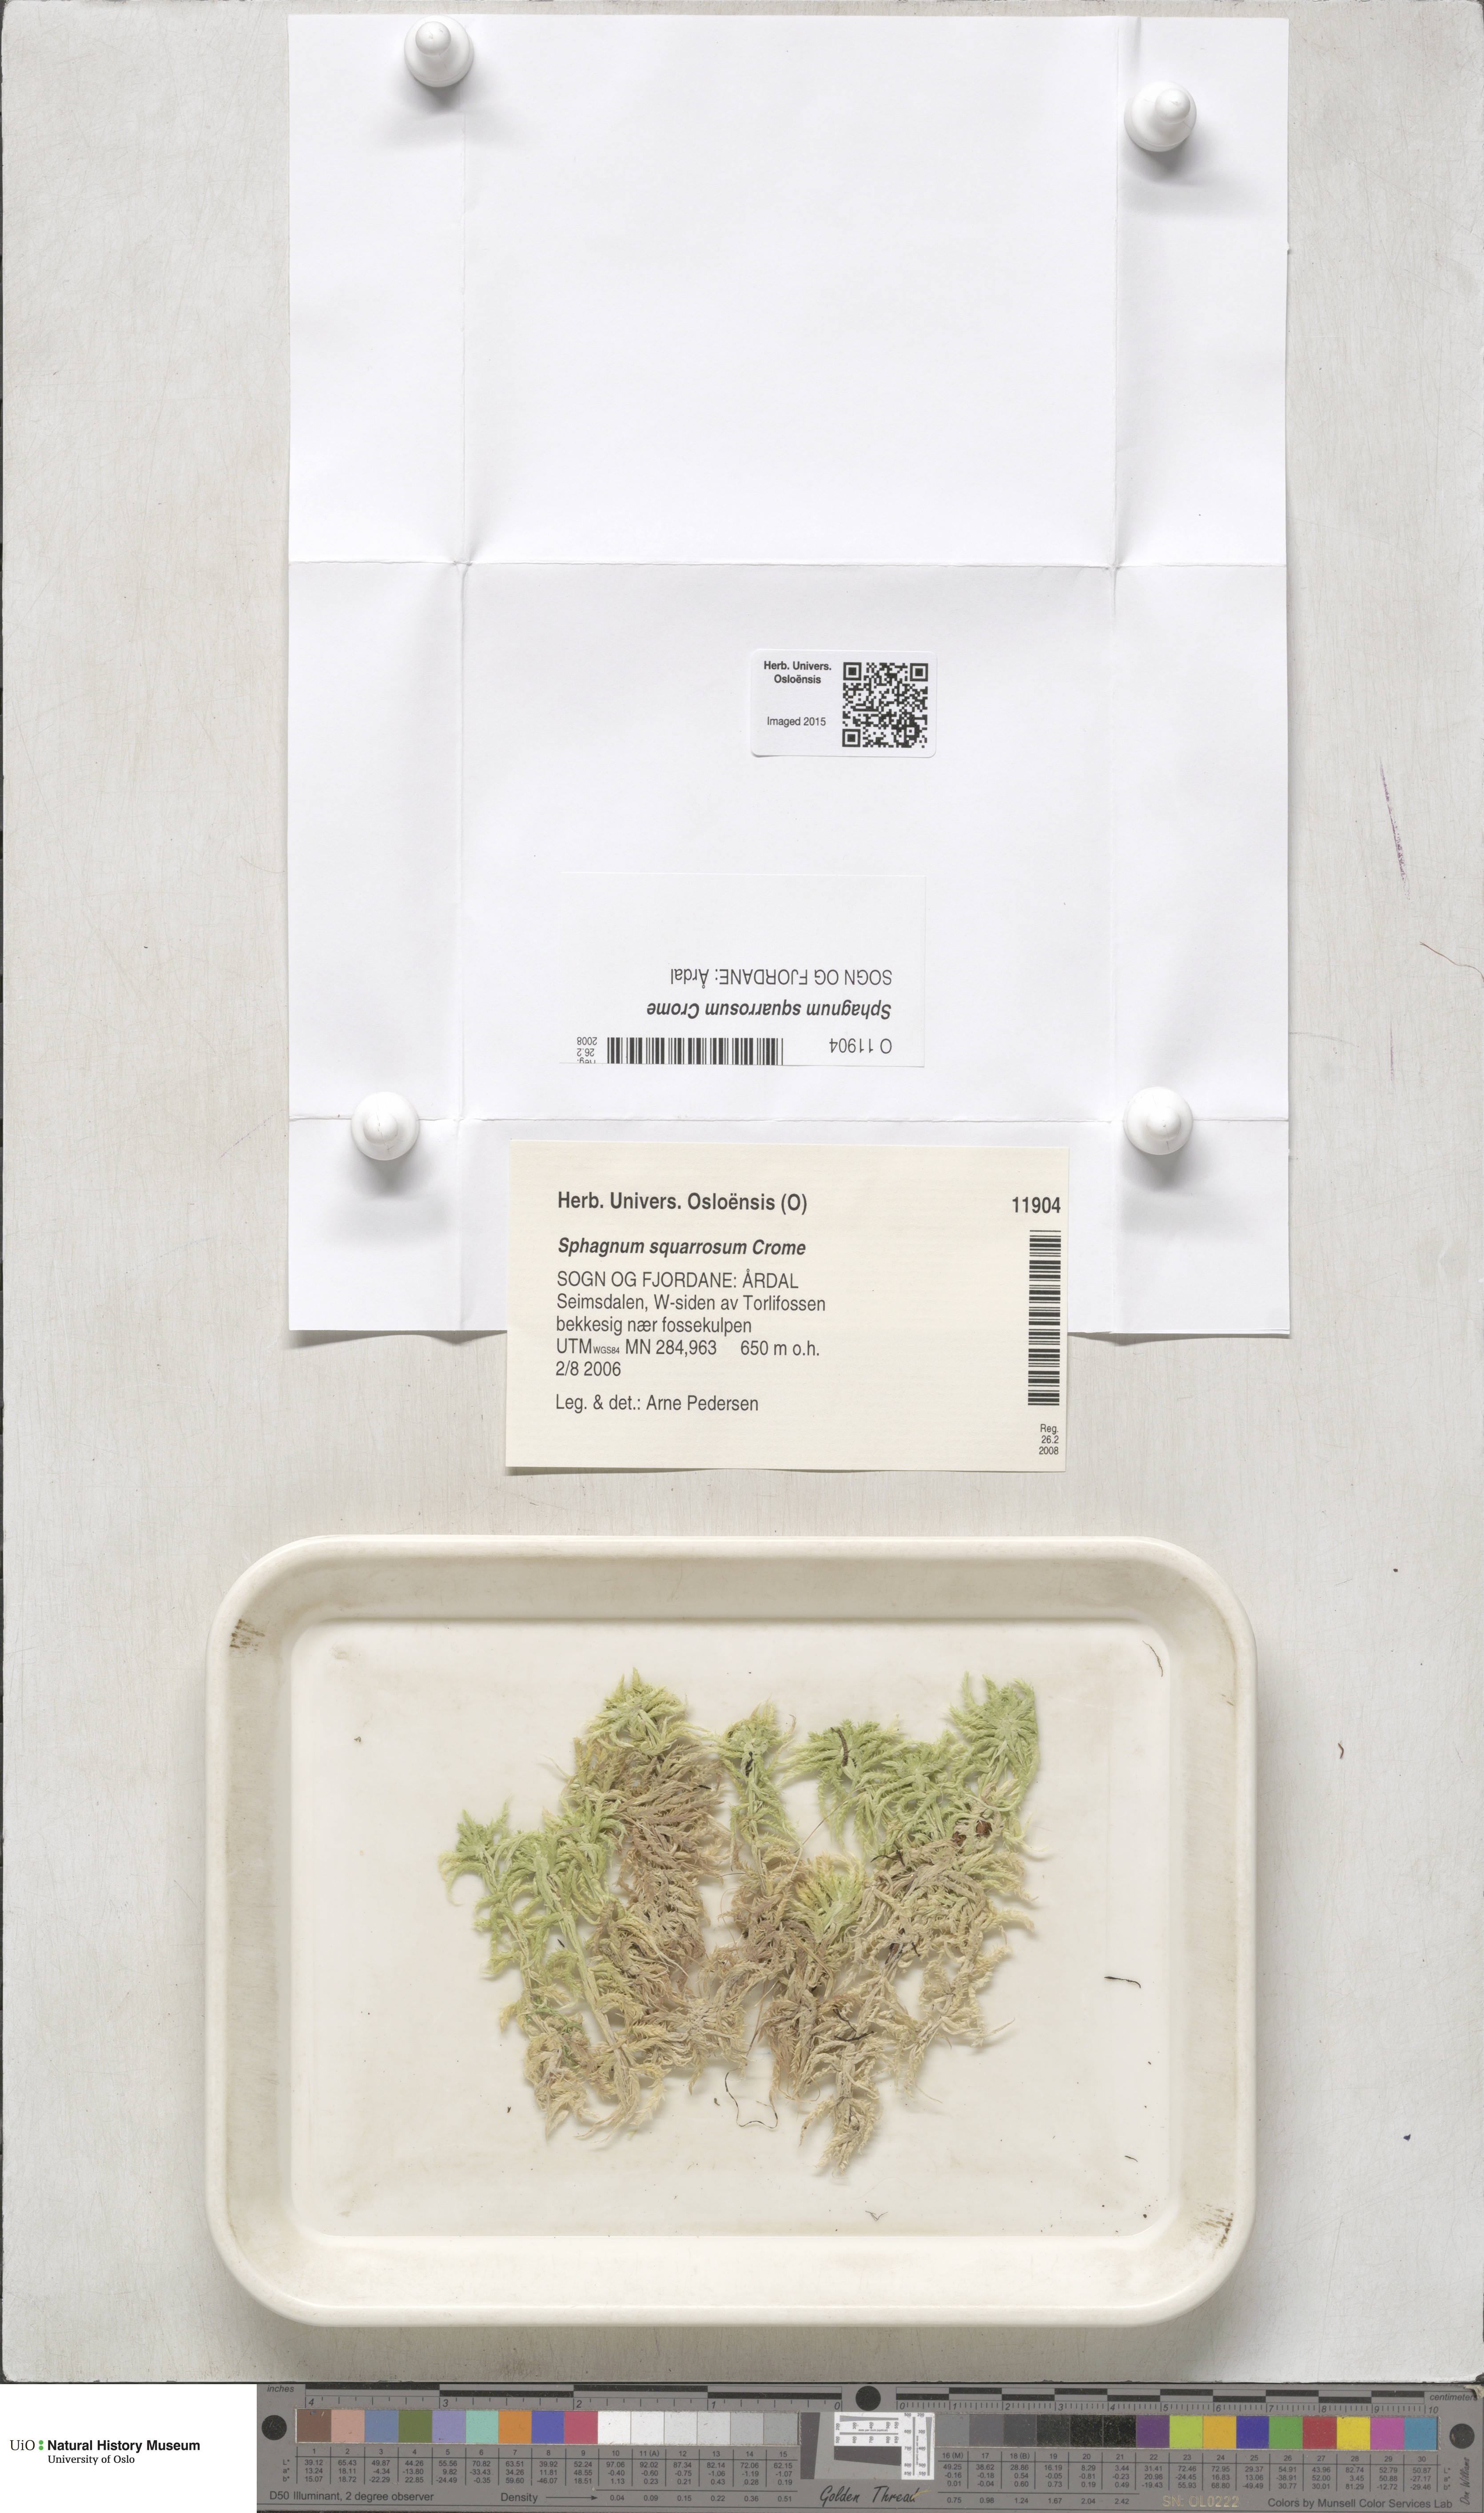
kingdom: Plantae
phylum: Bryophyta
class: Sphagnopsida
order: Sphagnales
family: Sphagnaceae
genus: Sphagnum
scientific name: Sphagnum squarrosum
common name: Shaggy peat moss
